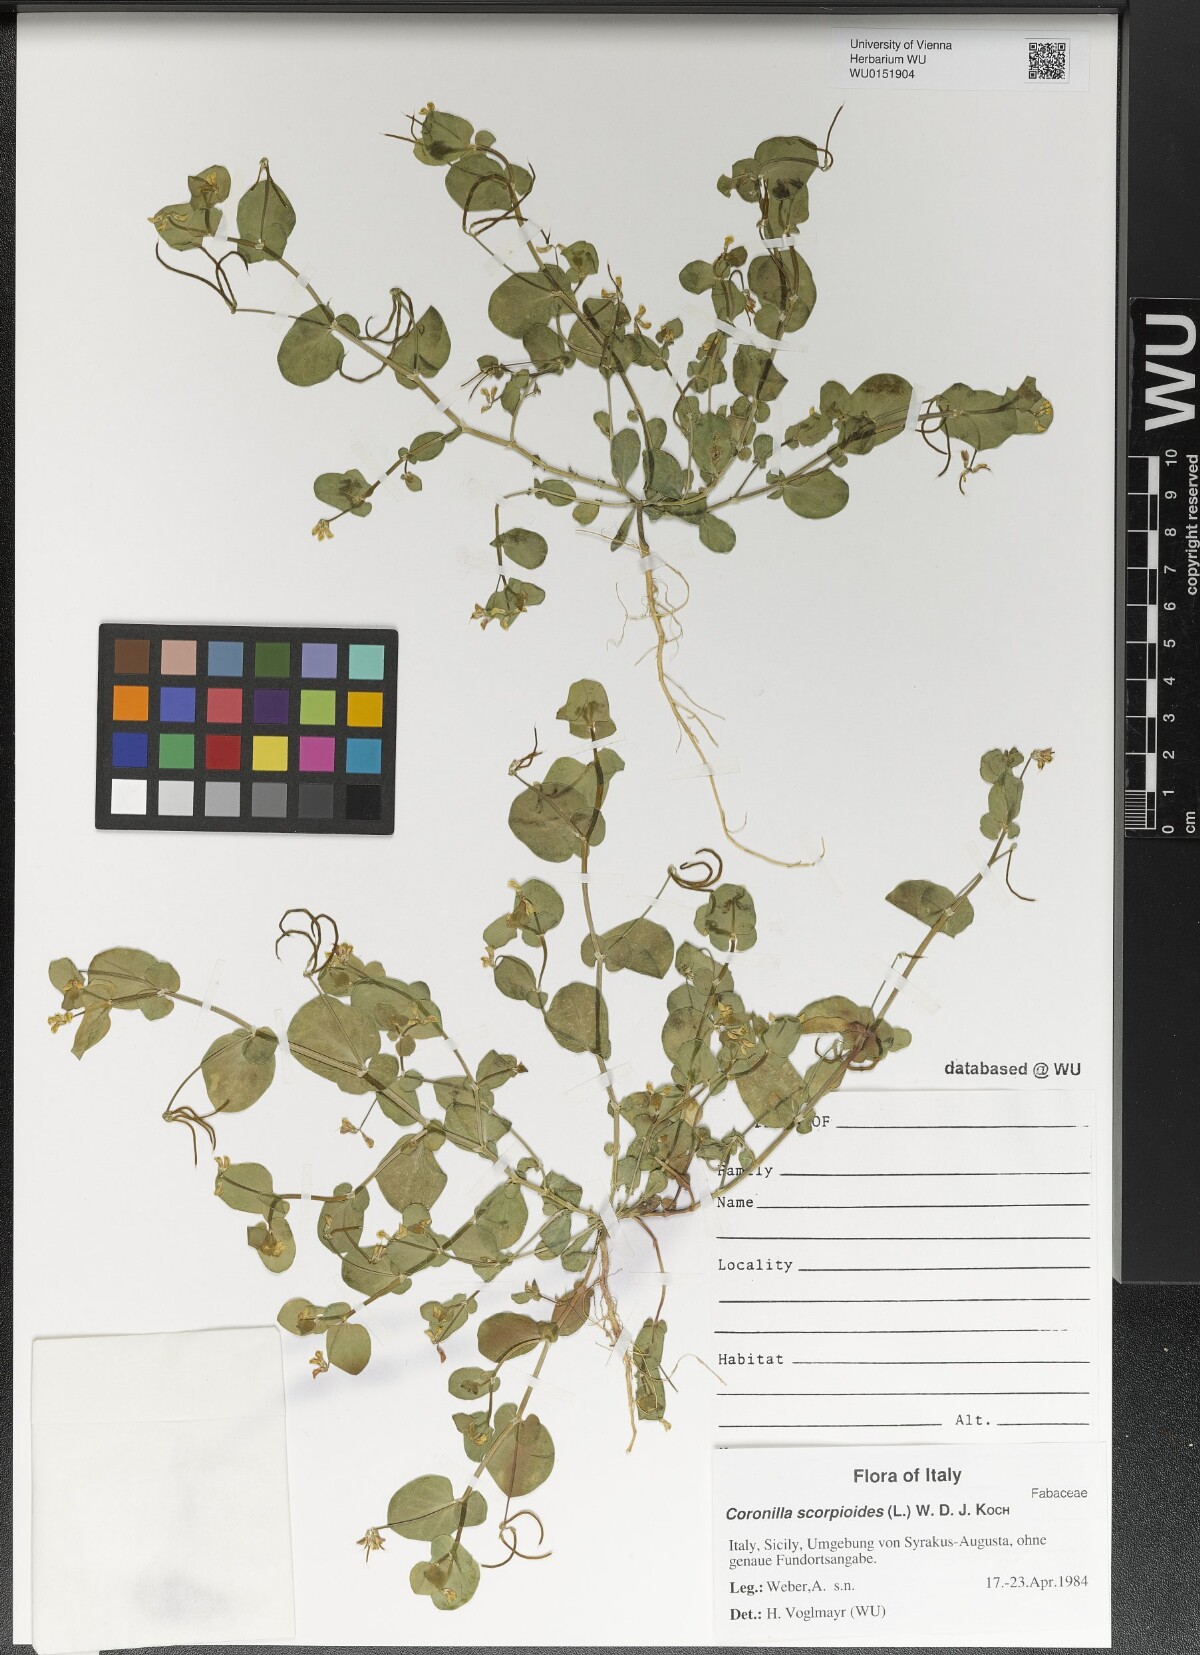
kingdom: Plantae
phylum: Tracheophyta
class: Magnoliopsida
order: Fabales
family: Fabaceae
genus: Coronilla
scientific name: Coronilla scorpioides
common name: Annual scorpion-vetch
